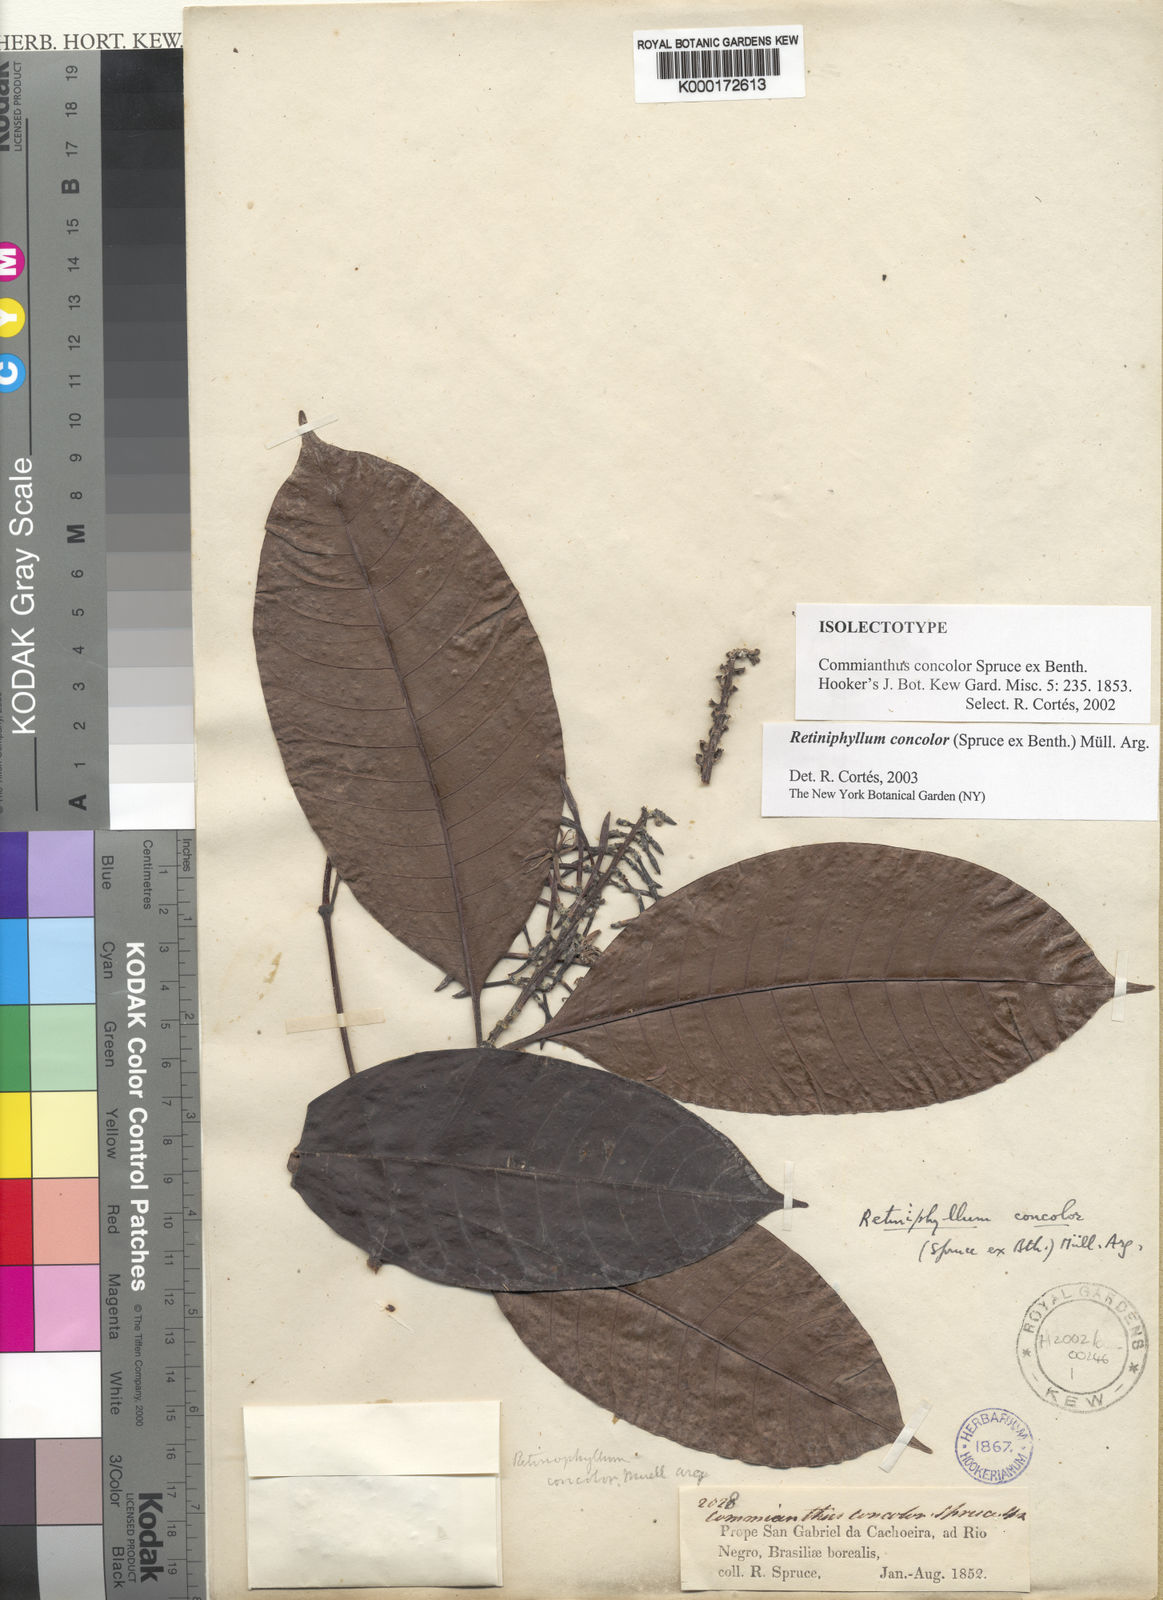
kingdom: Plantae
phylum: Tracheophyta
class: Magnoliopsida
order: Gentianales
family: Rubiaceae
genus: Retiniphyllum
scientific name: Retiniphyllum
